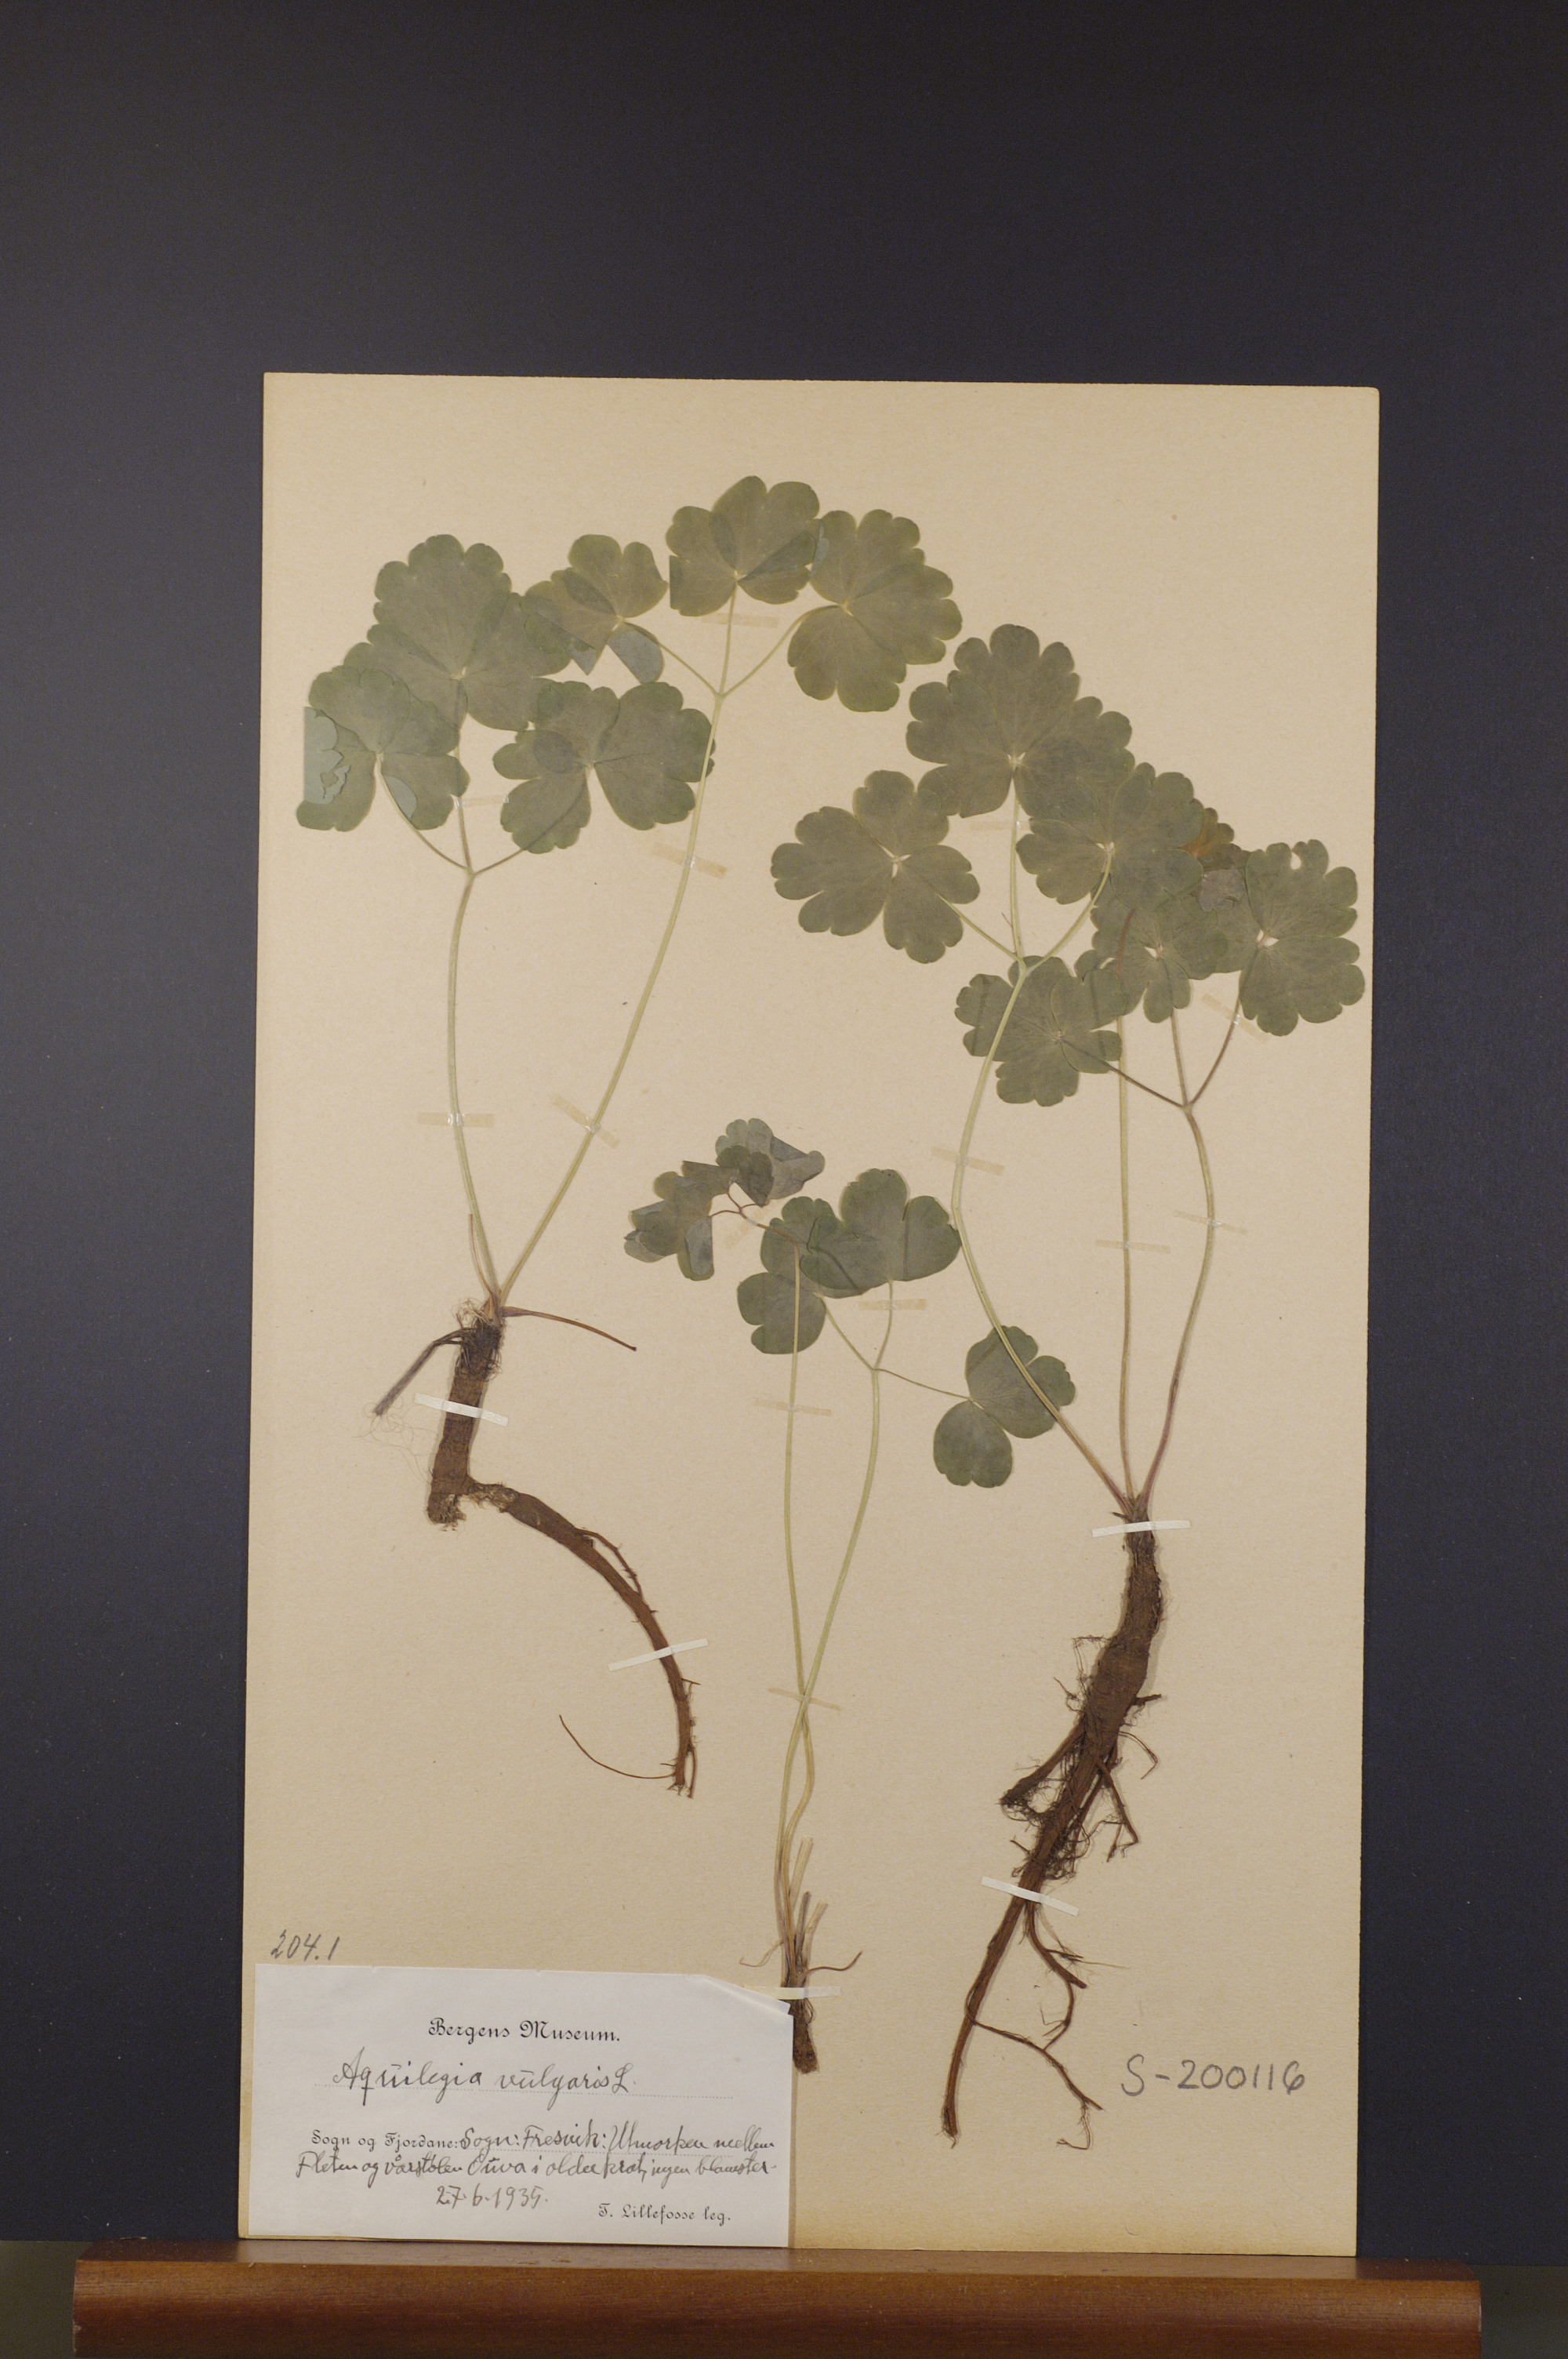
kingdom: Plantae
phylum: Tracheophyta
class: Magnoliopsida
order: Ranunculales
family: Ranunculaceae
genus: Aquilegia
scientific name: Aquilegia vulgaris
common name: Columbine
